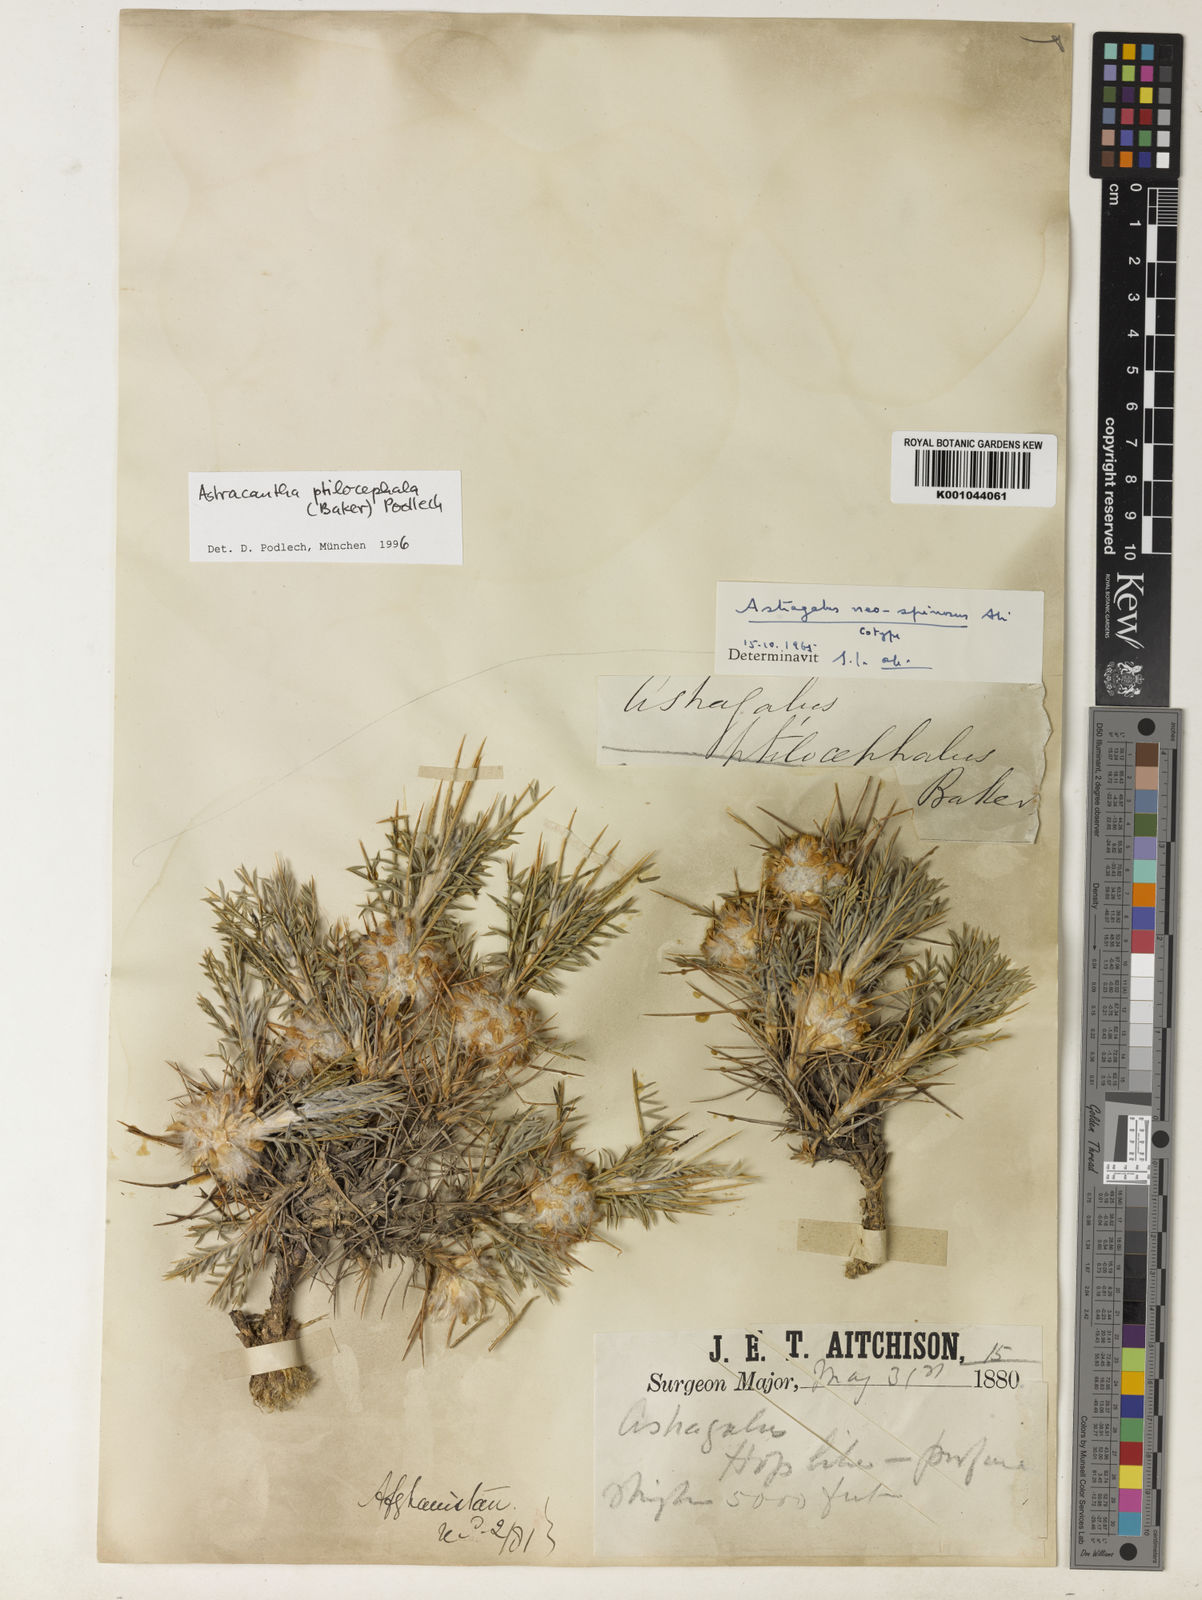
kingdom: Plantae
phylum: Tracheophyta
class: Magnoliopsida
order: Fabales
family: Fabaceae
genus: Astragalus
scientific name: Astragalus ptilocephalus
